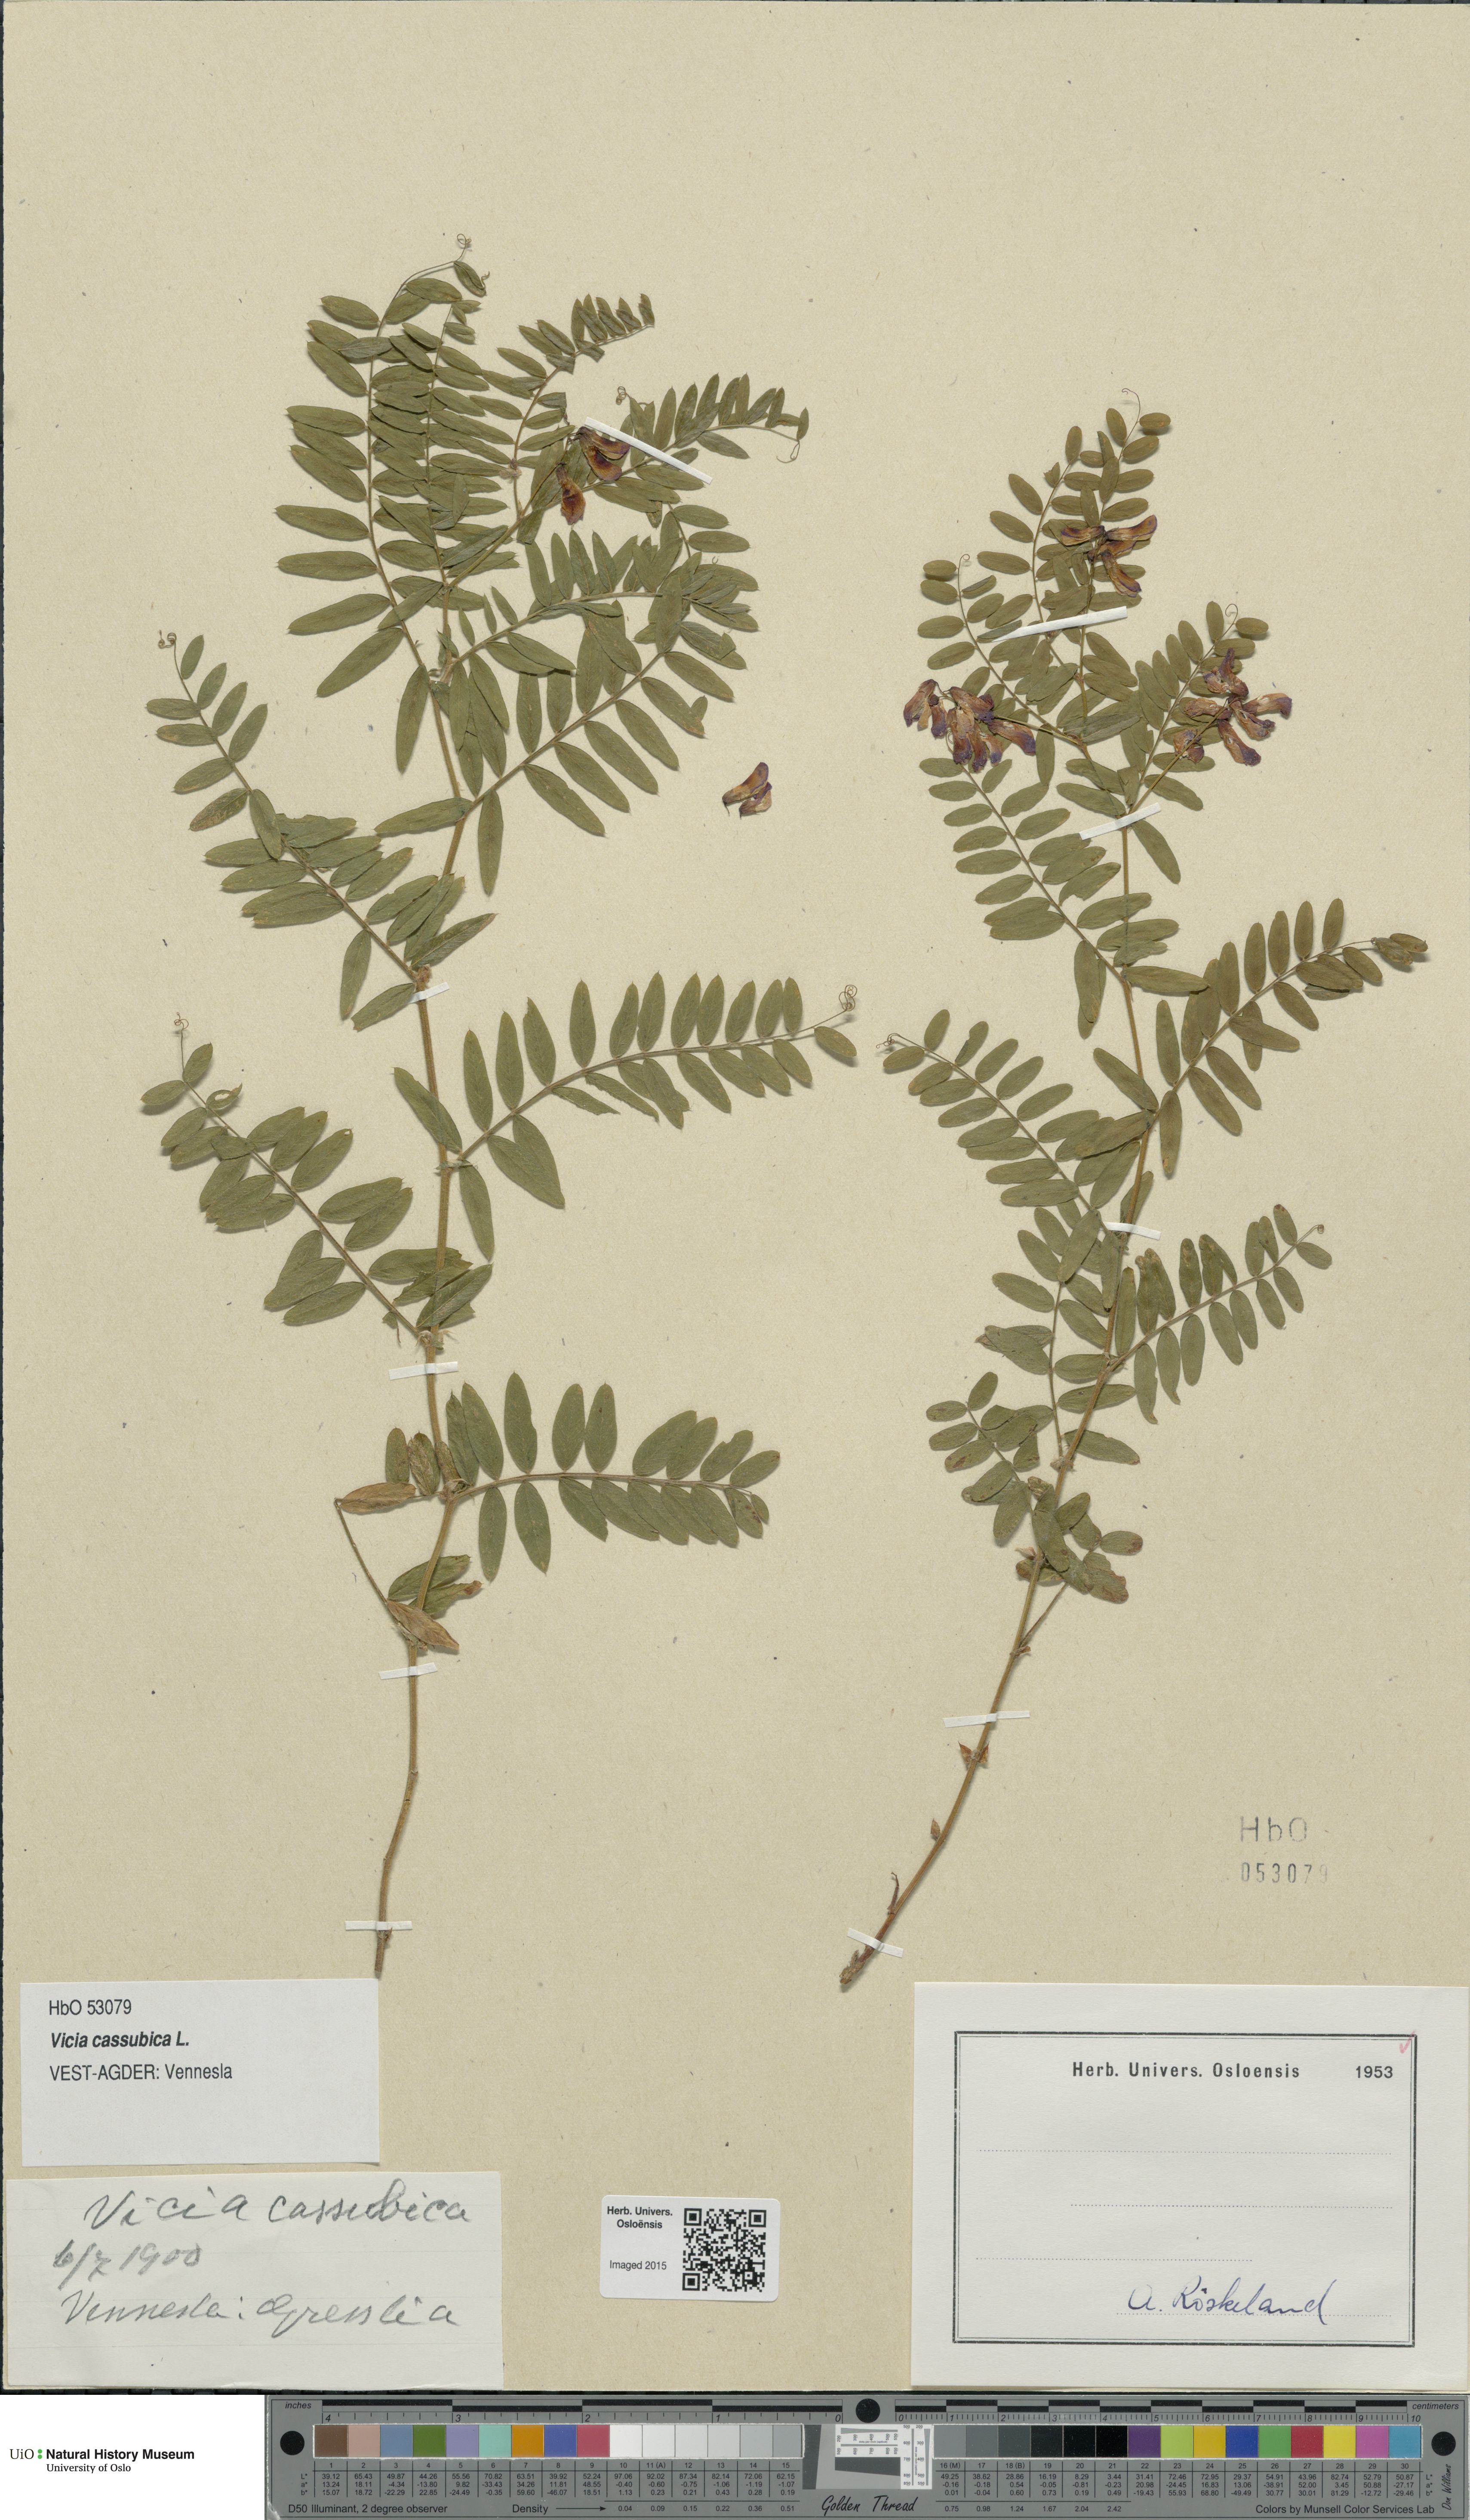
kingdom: Plantae
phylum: Tracheophyta
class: Magnoliopsida
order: Fabales
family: Fabaceae
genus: Vicia
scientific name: Vicia cassubica
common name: Danzig vetch
